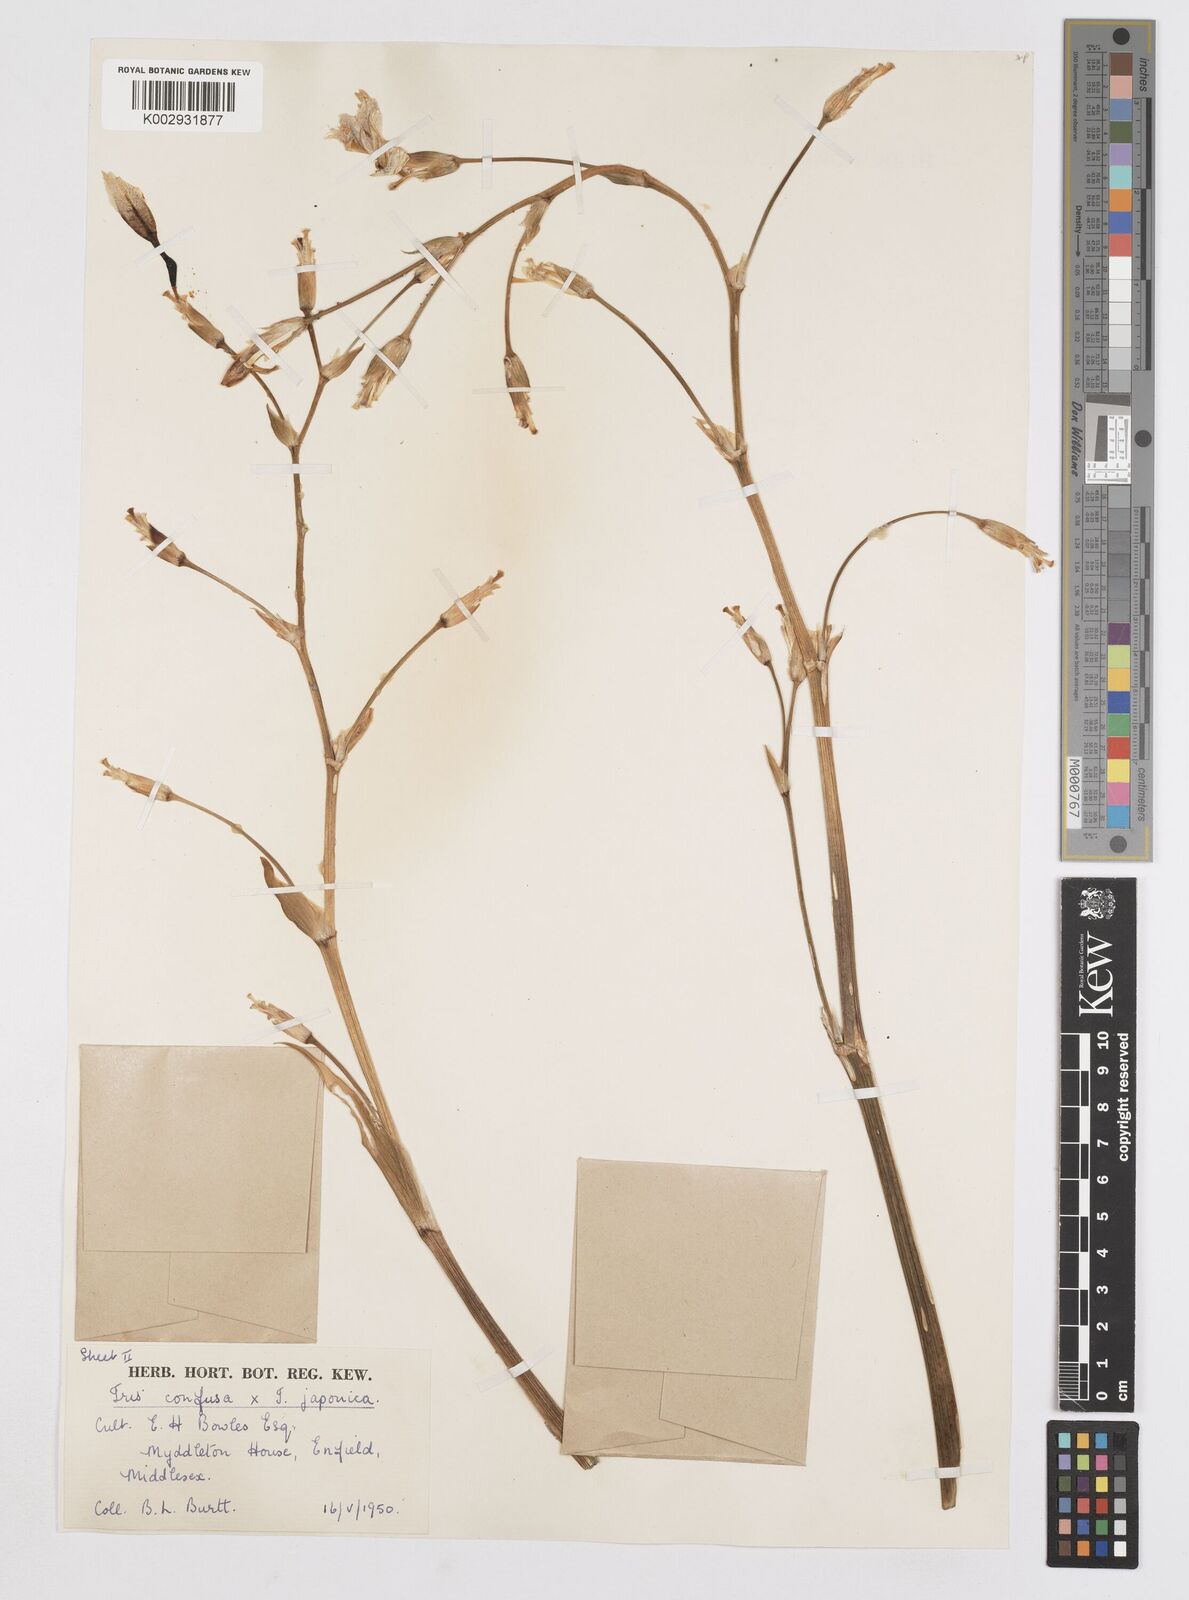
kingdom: Plantae
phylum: Tracheophyta
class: Liliopsida
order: Asparagales
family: Iridaceae
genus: Iris
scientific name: Iris confusa
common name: Flat bamboo-orchid
